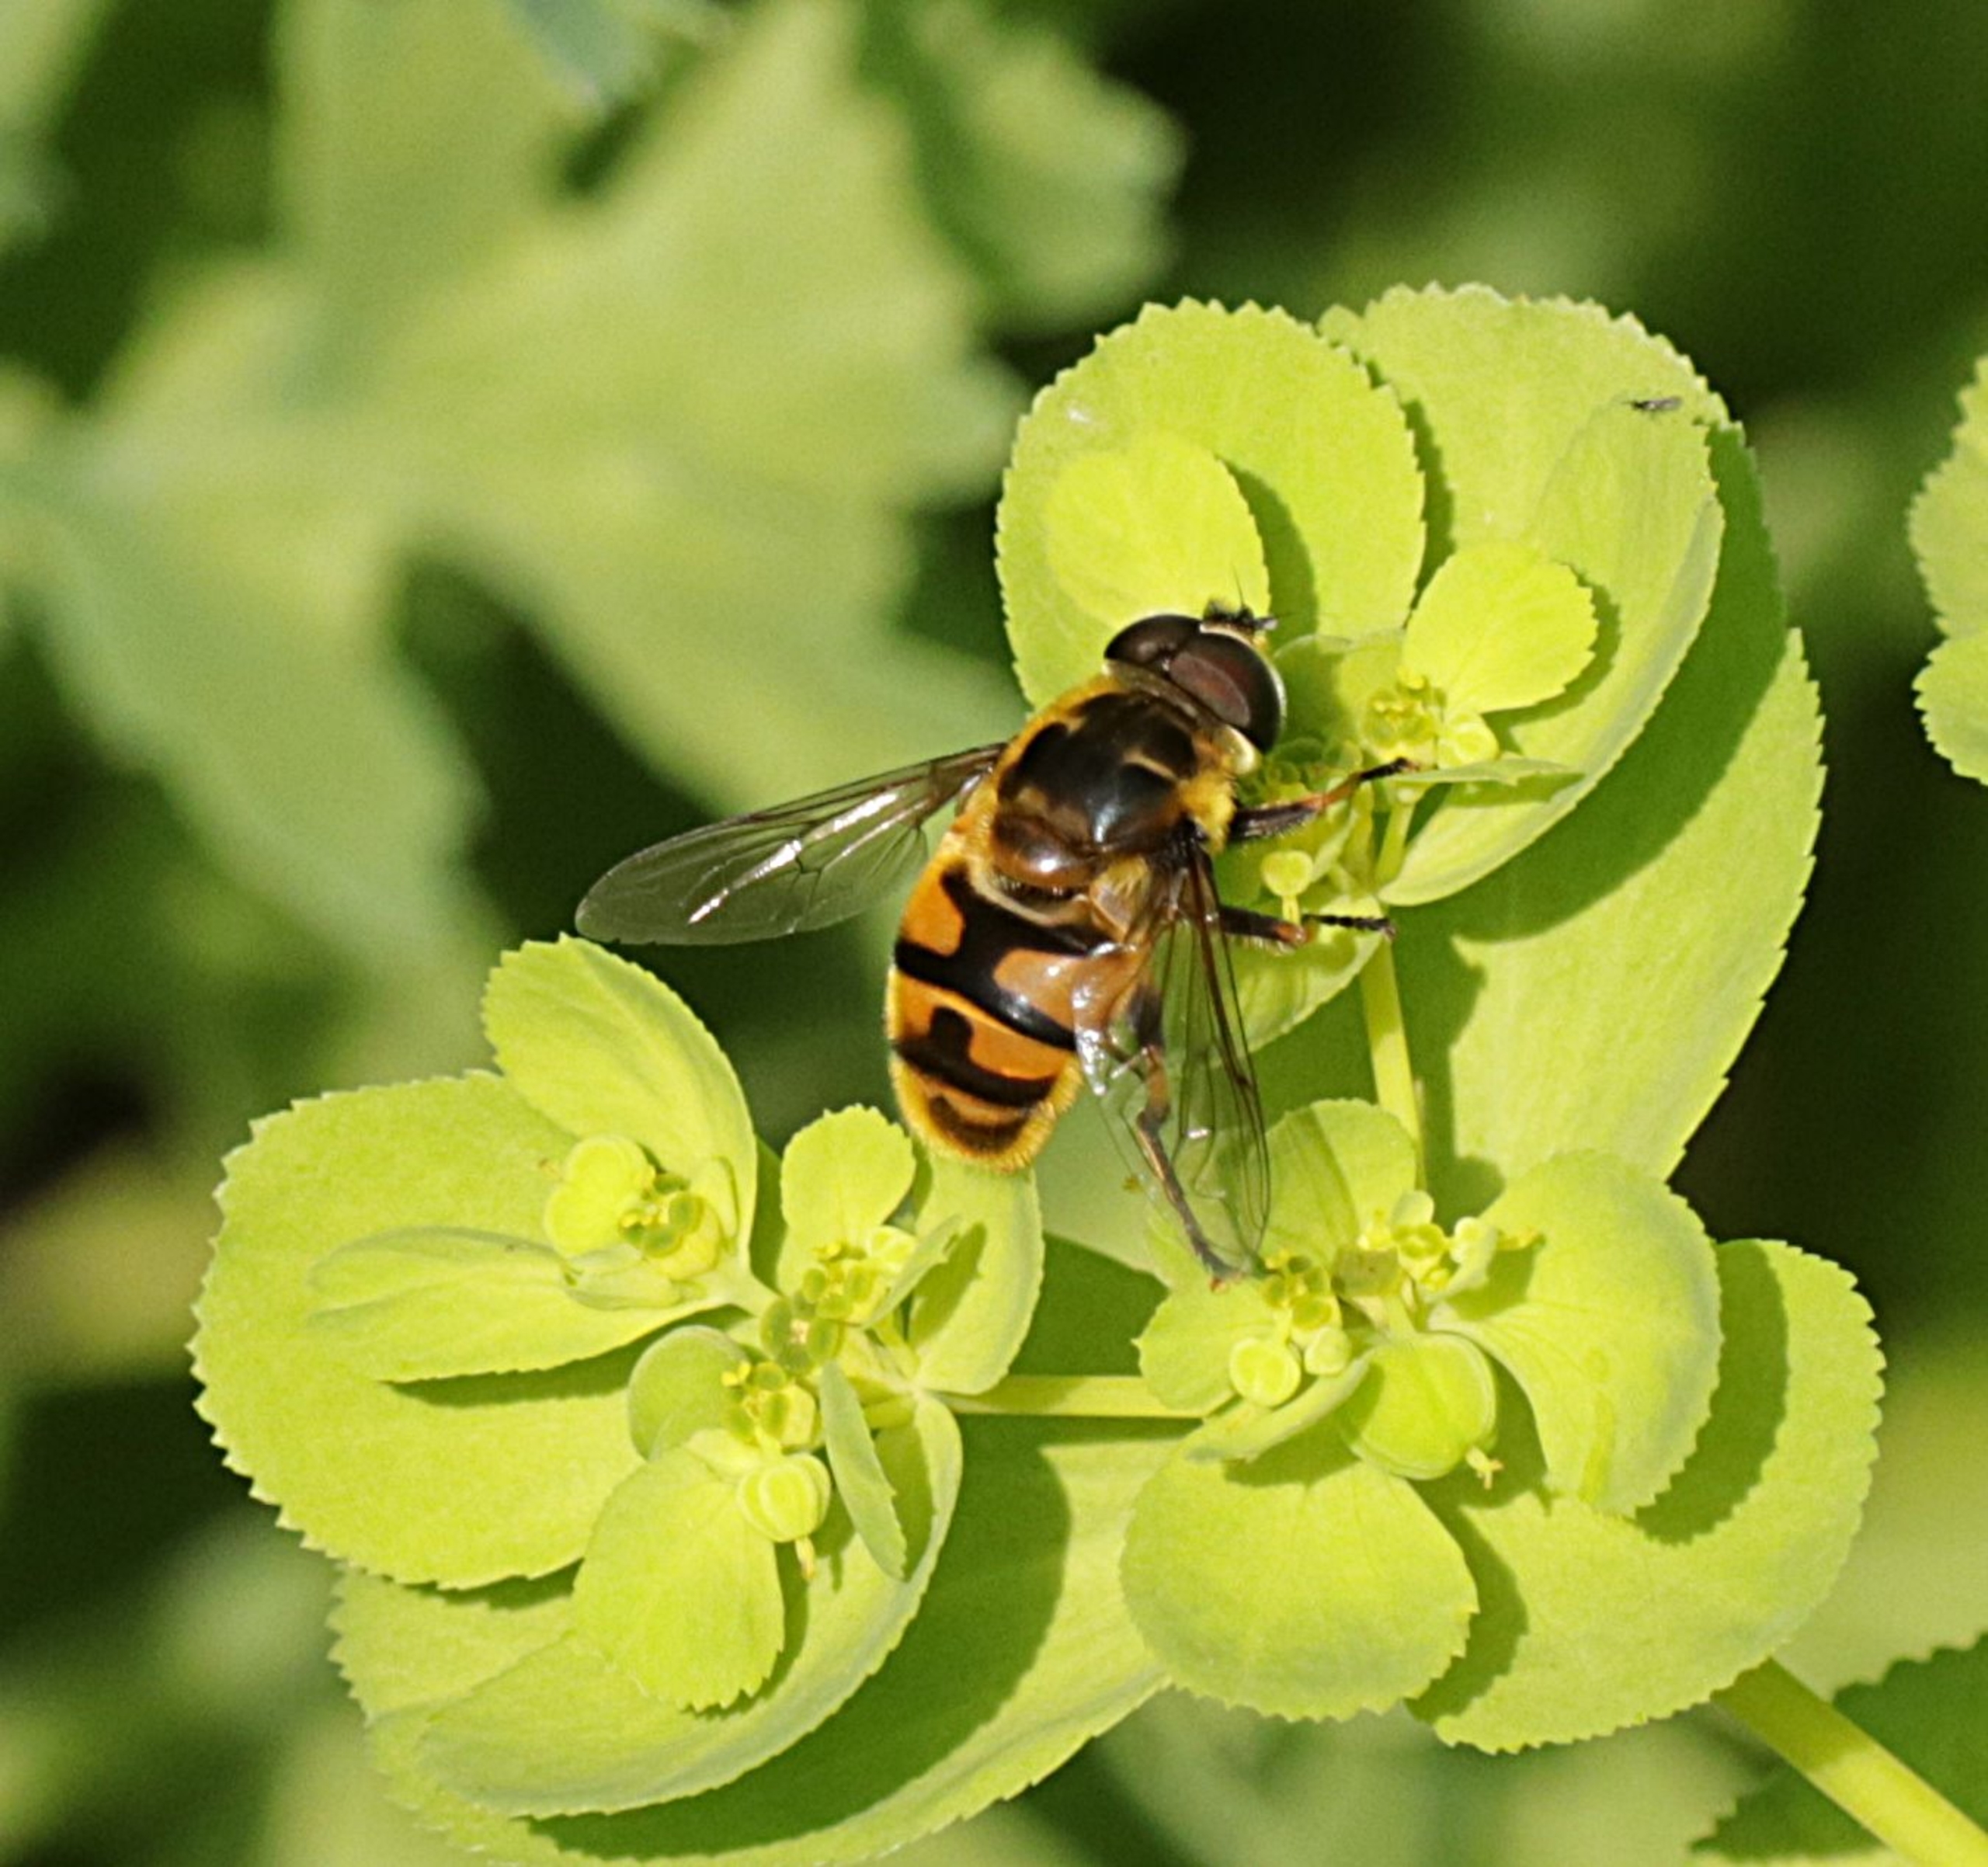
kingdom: Animalia
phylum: Arthropoda
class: Insecta
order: Diptera
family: Syrphidae
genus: Myathropa
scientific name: Myathropa florea
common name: Dødningehoved-svirreflue
